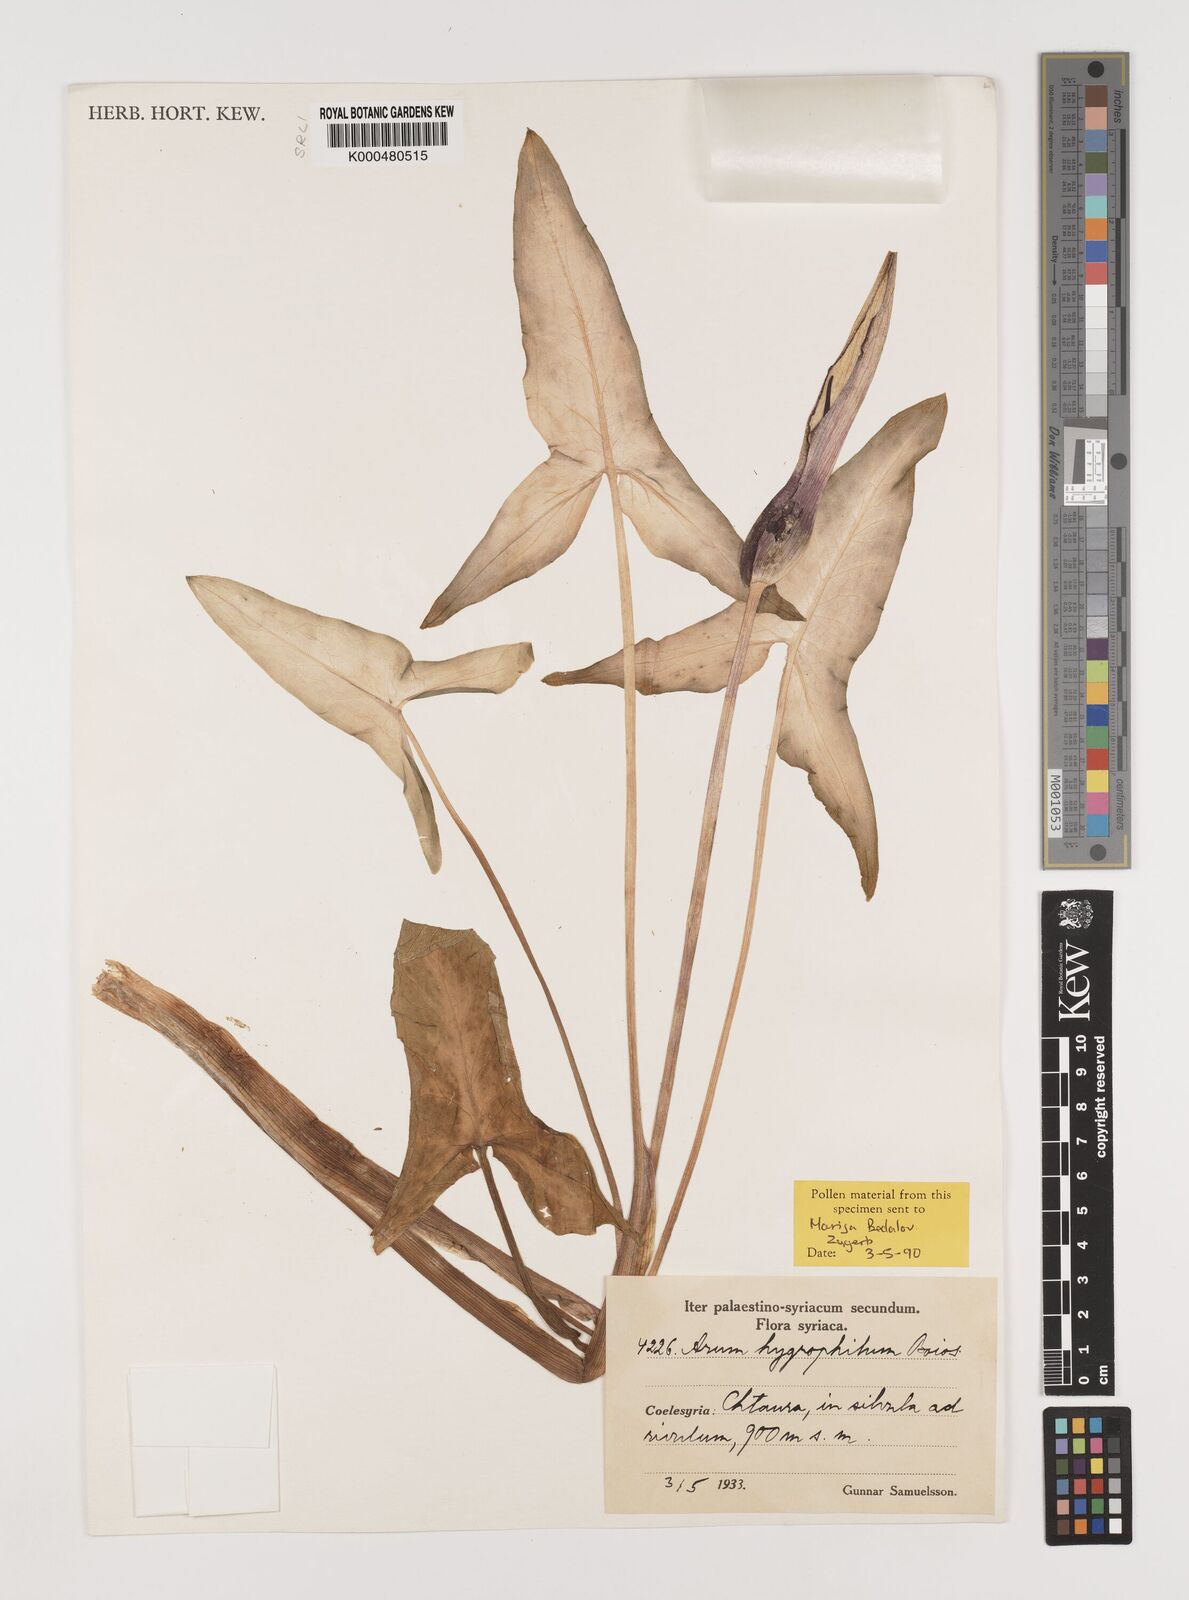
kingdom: Plantae
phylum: Tracheophyta
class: Liliopsida
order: Alismatales
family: Araceae
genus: Arum
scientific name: Arum hygrophilum
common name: Water arum
